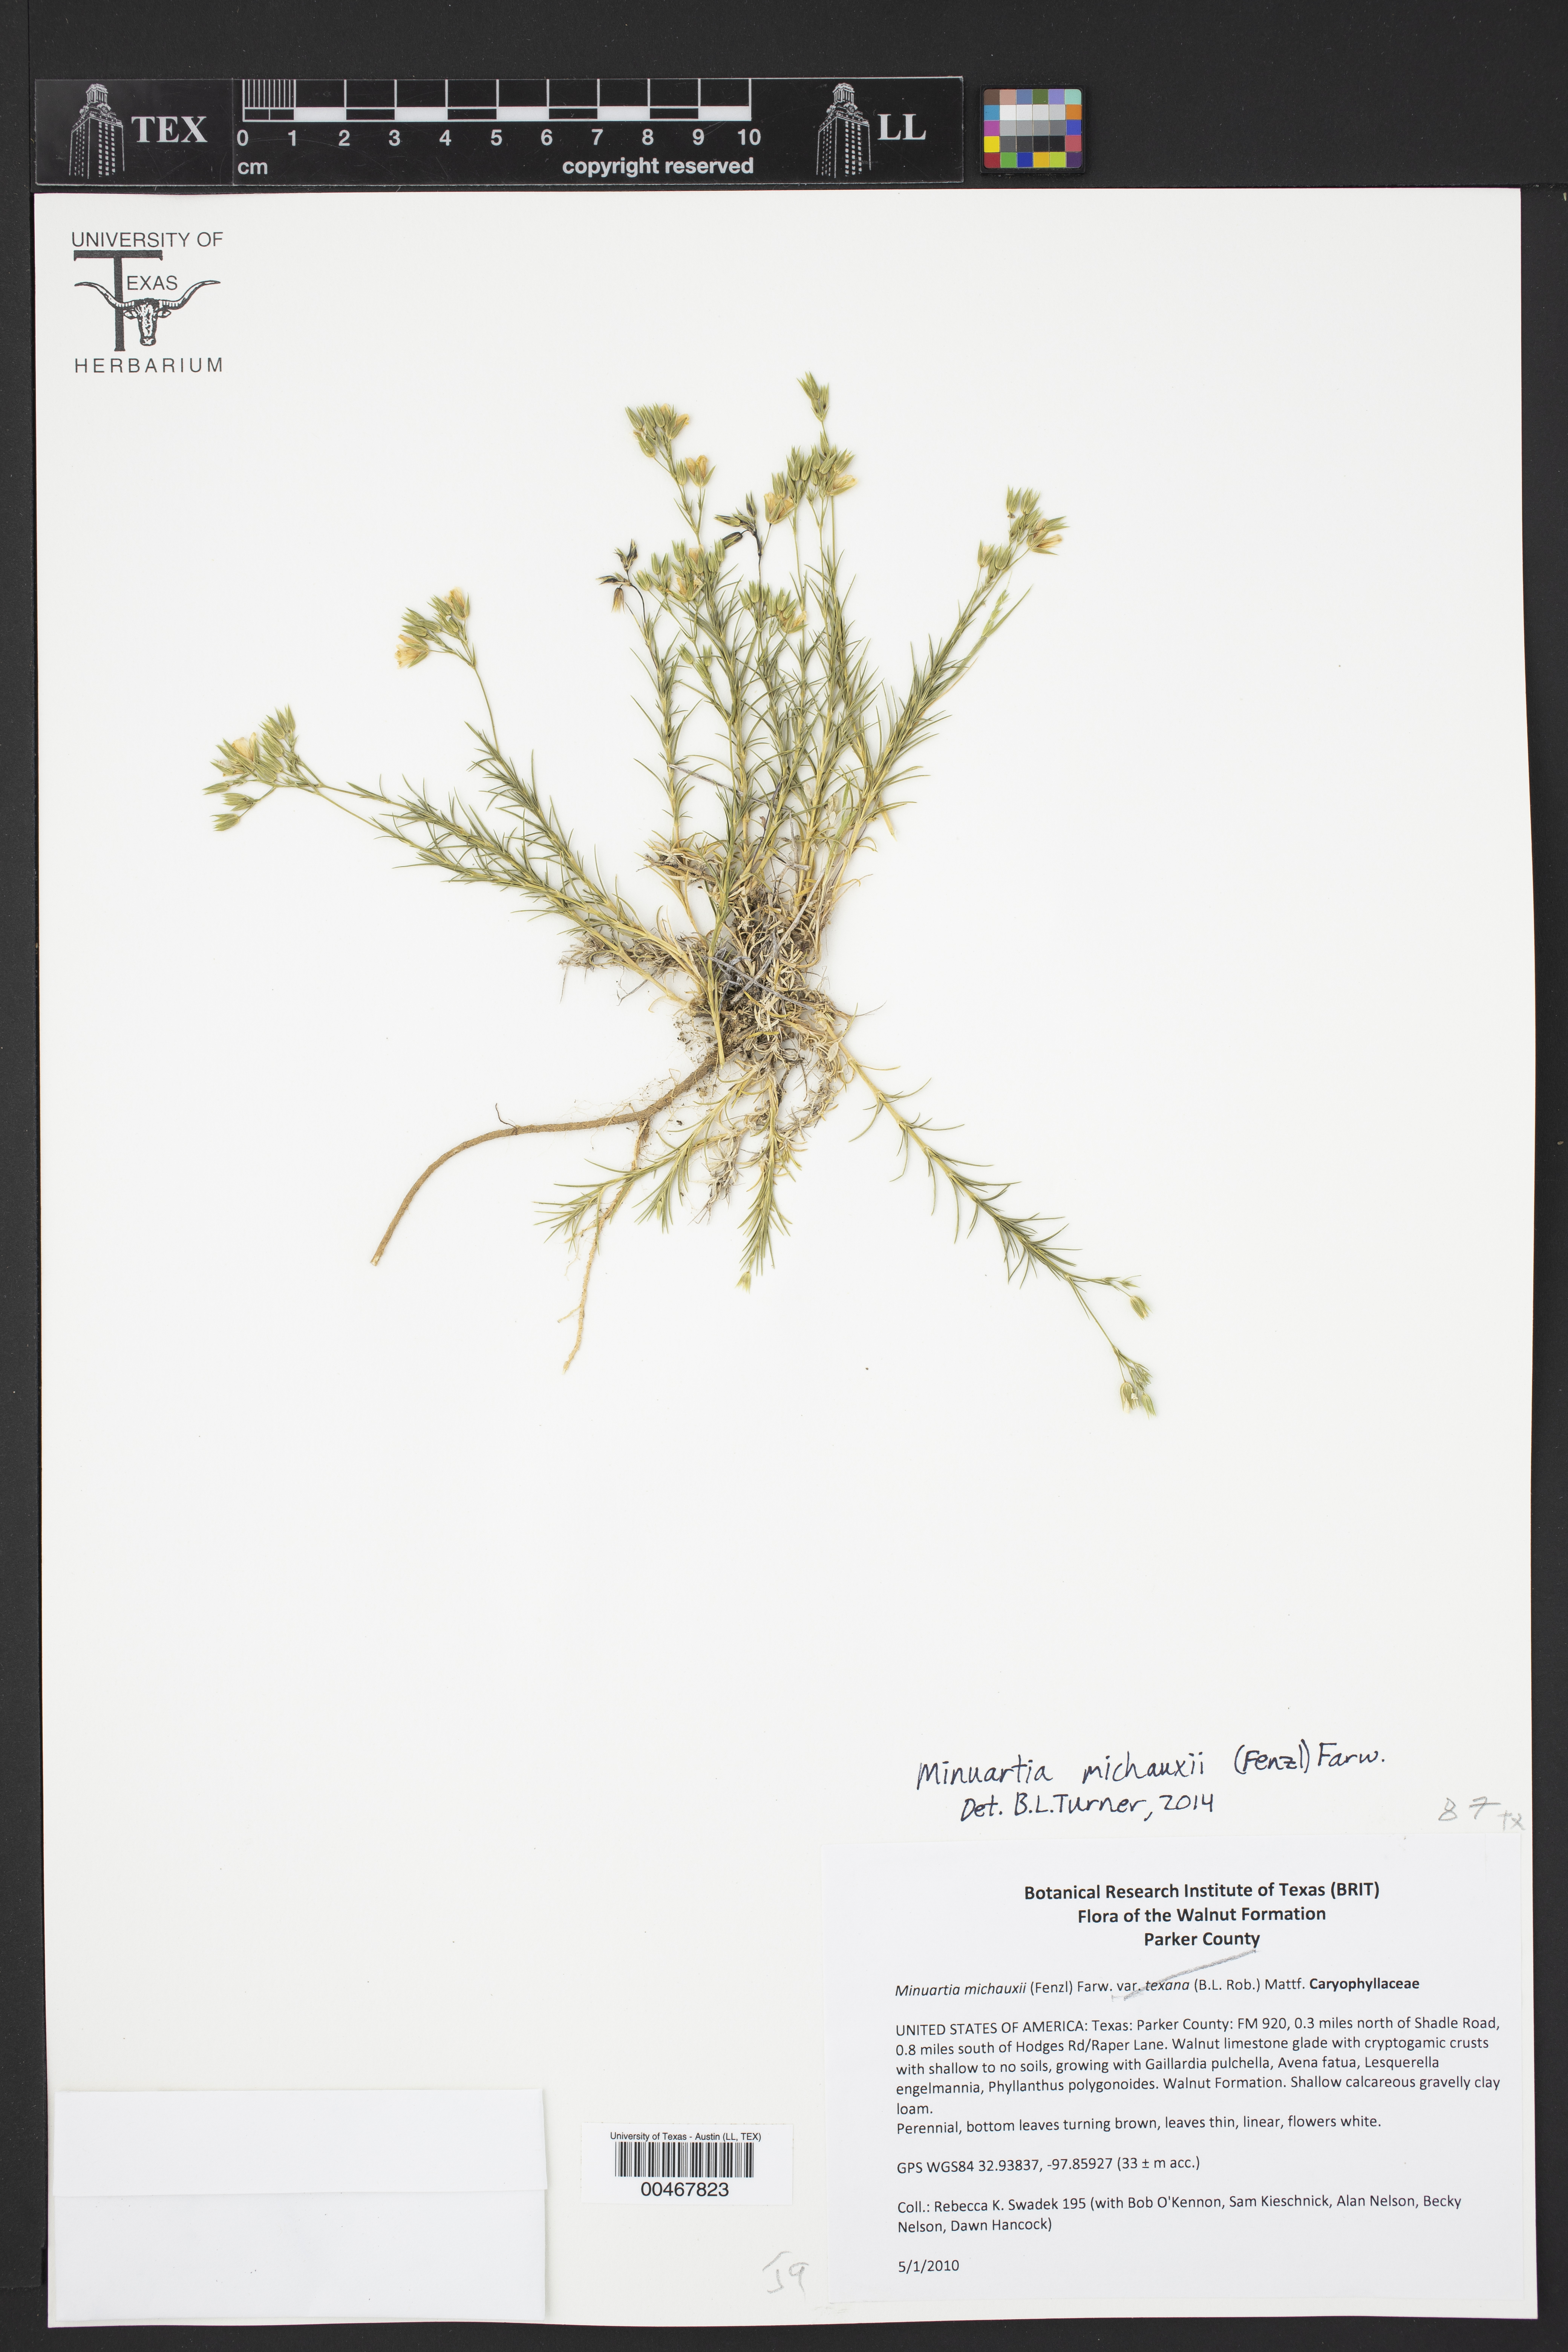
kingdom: Plantae
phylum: Tracheophyta
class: Magnoliopsida
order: Caryophyllales
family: Caryophyllaceae
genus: Minuartia
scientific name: Minuartia michauxii
